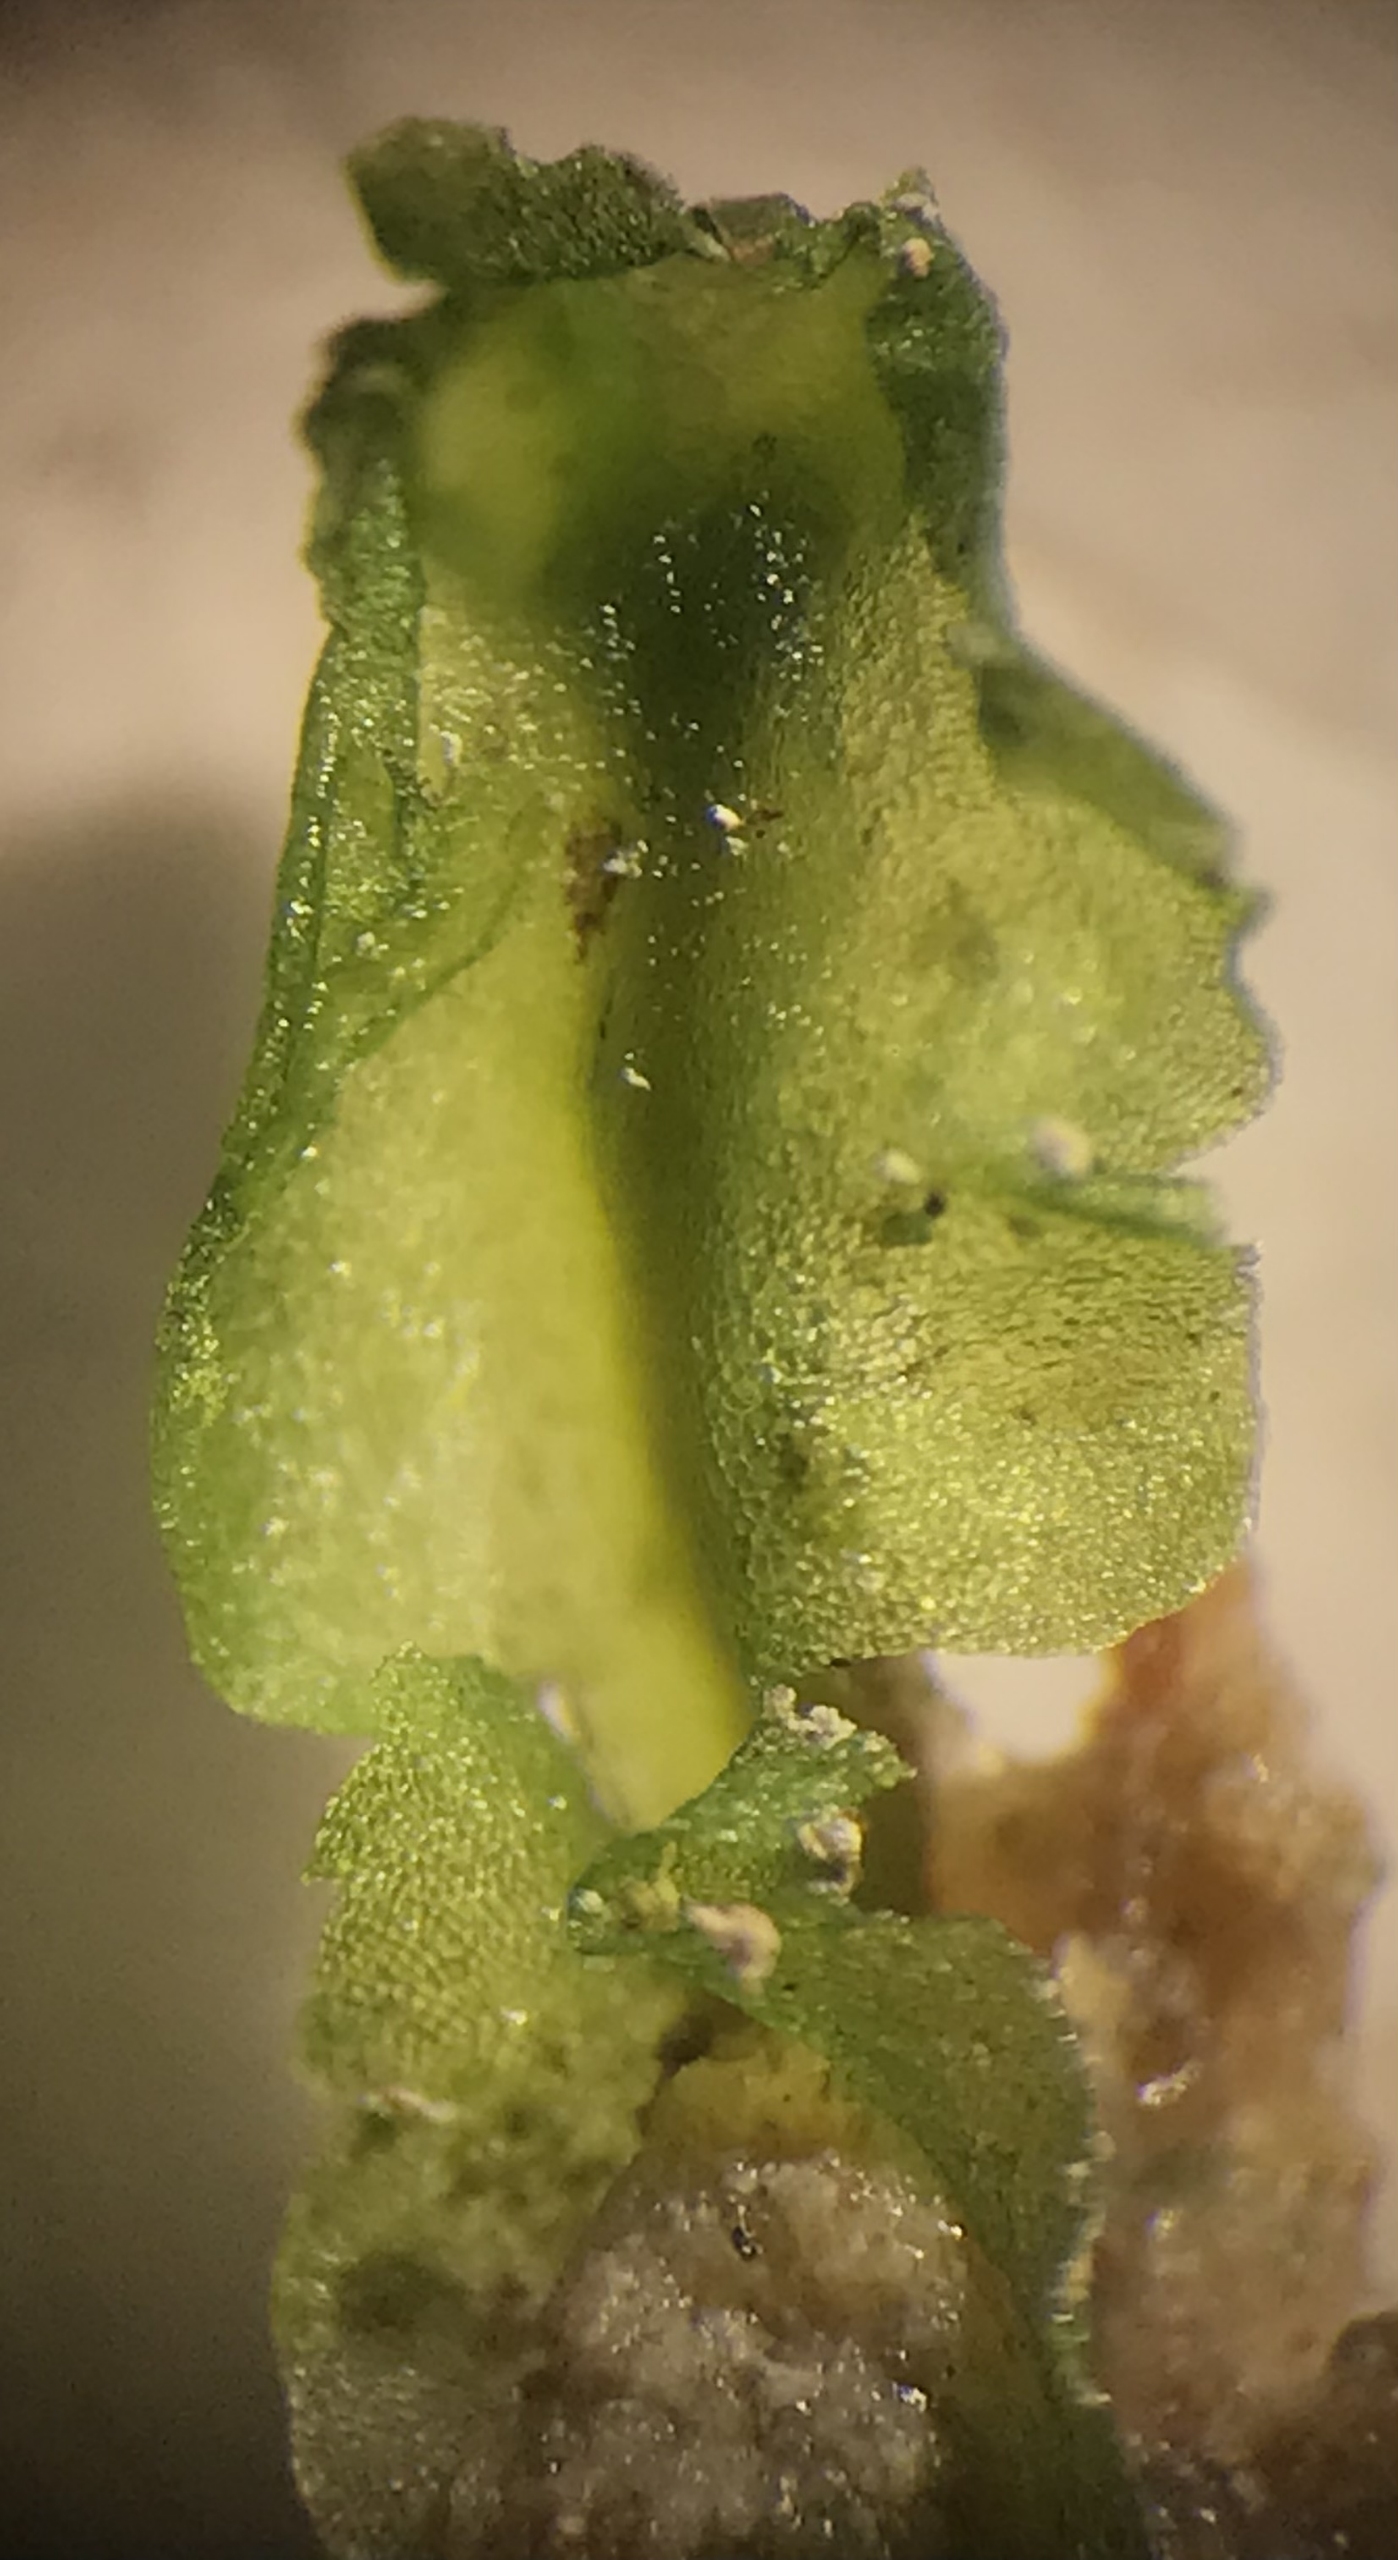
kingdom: Plantae
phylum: Marchantiophyta
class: Jungermanniopsida
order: Pelliales
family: Pelliaceae
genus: Pellia
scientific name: Pellia
